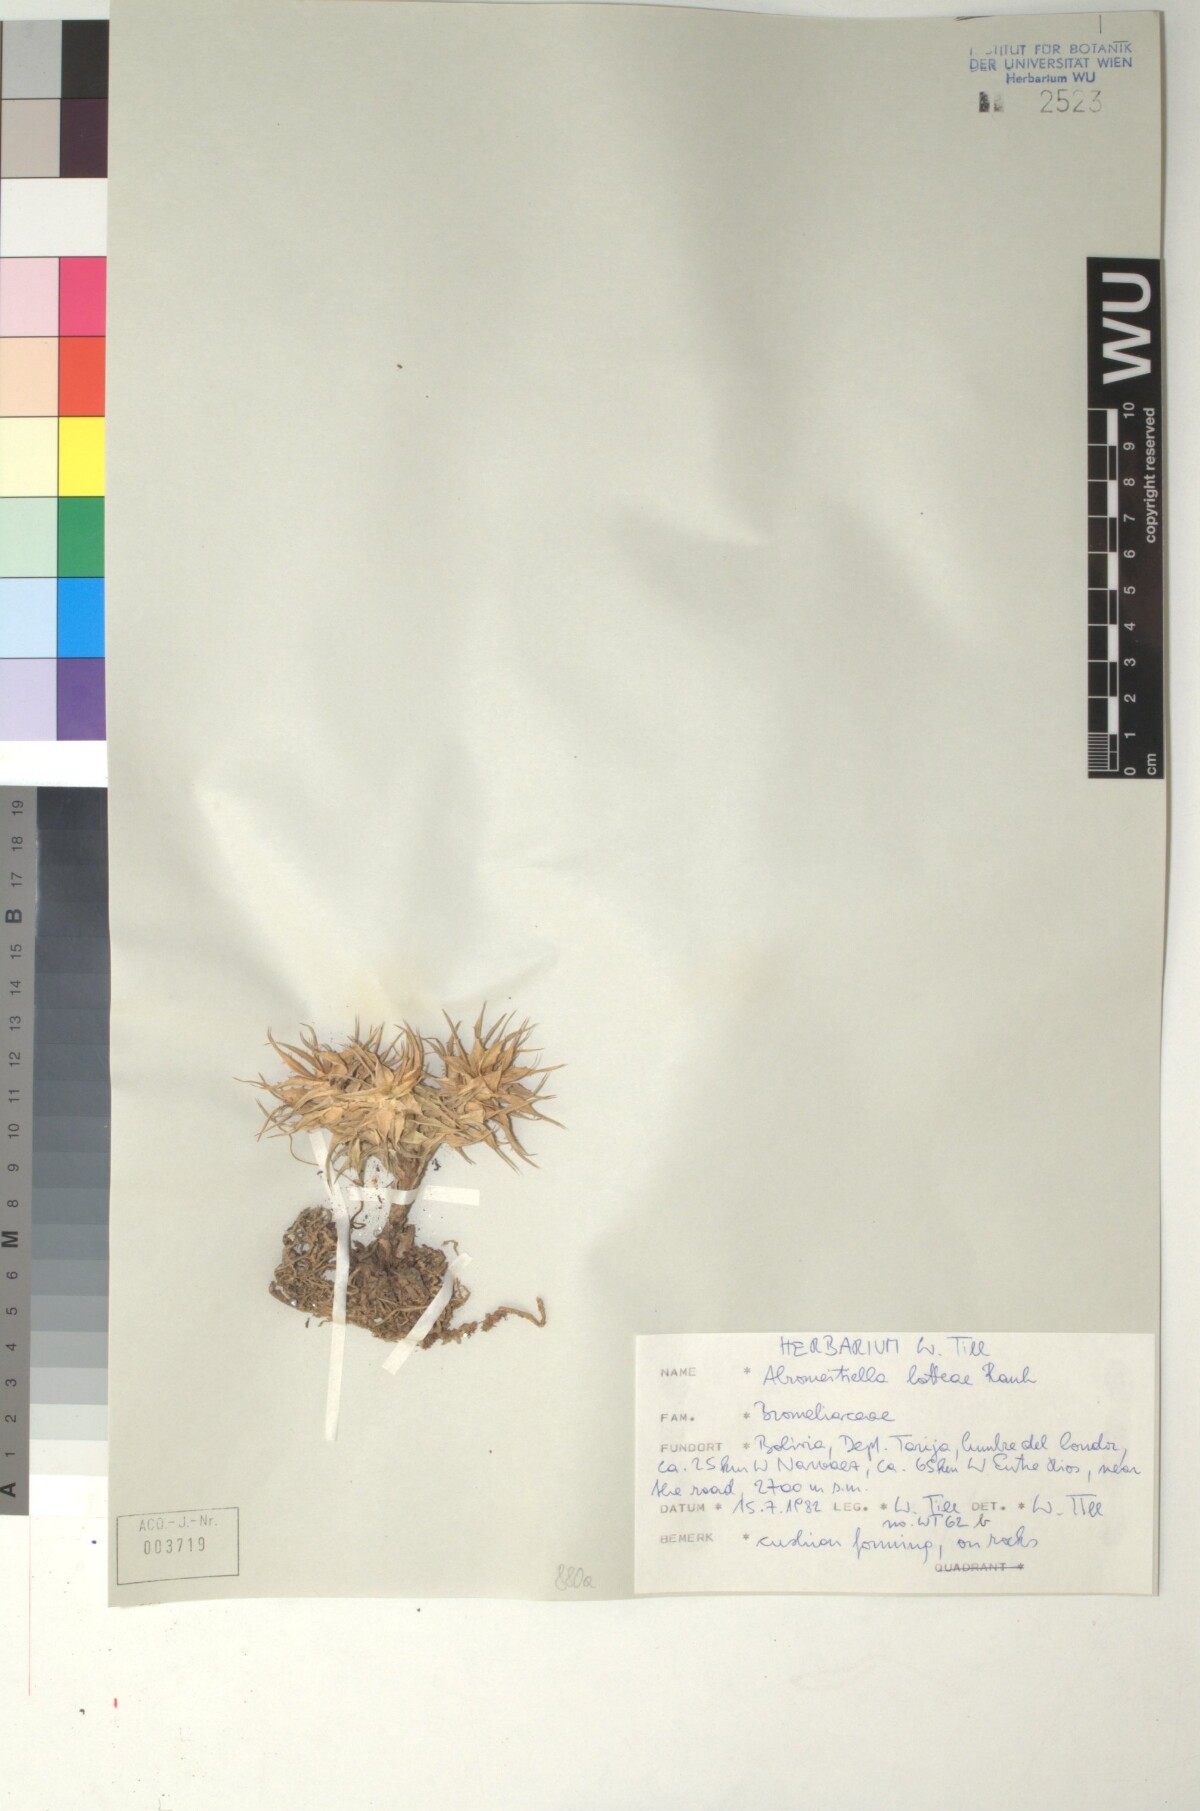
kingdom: Plantae
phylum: Tracheophyta
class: Liliopsida
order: Poales
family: Bromeliaceae
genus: Deuterocohnia
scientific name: Deuterocohnia lotteae
